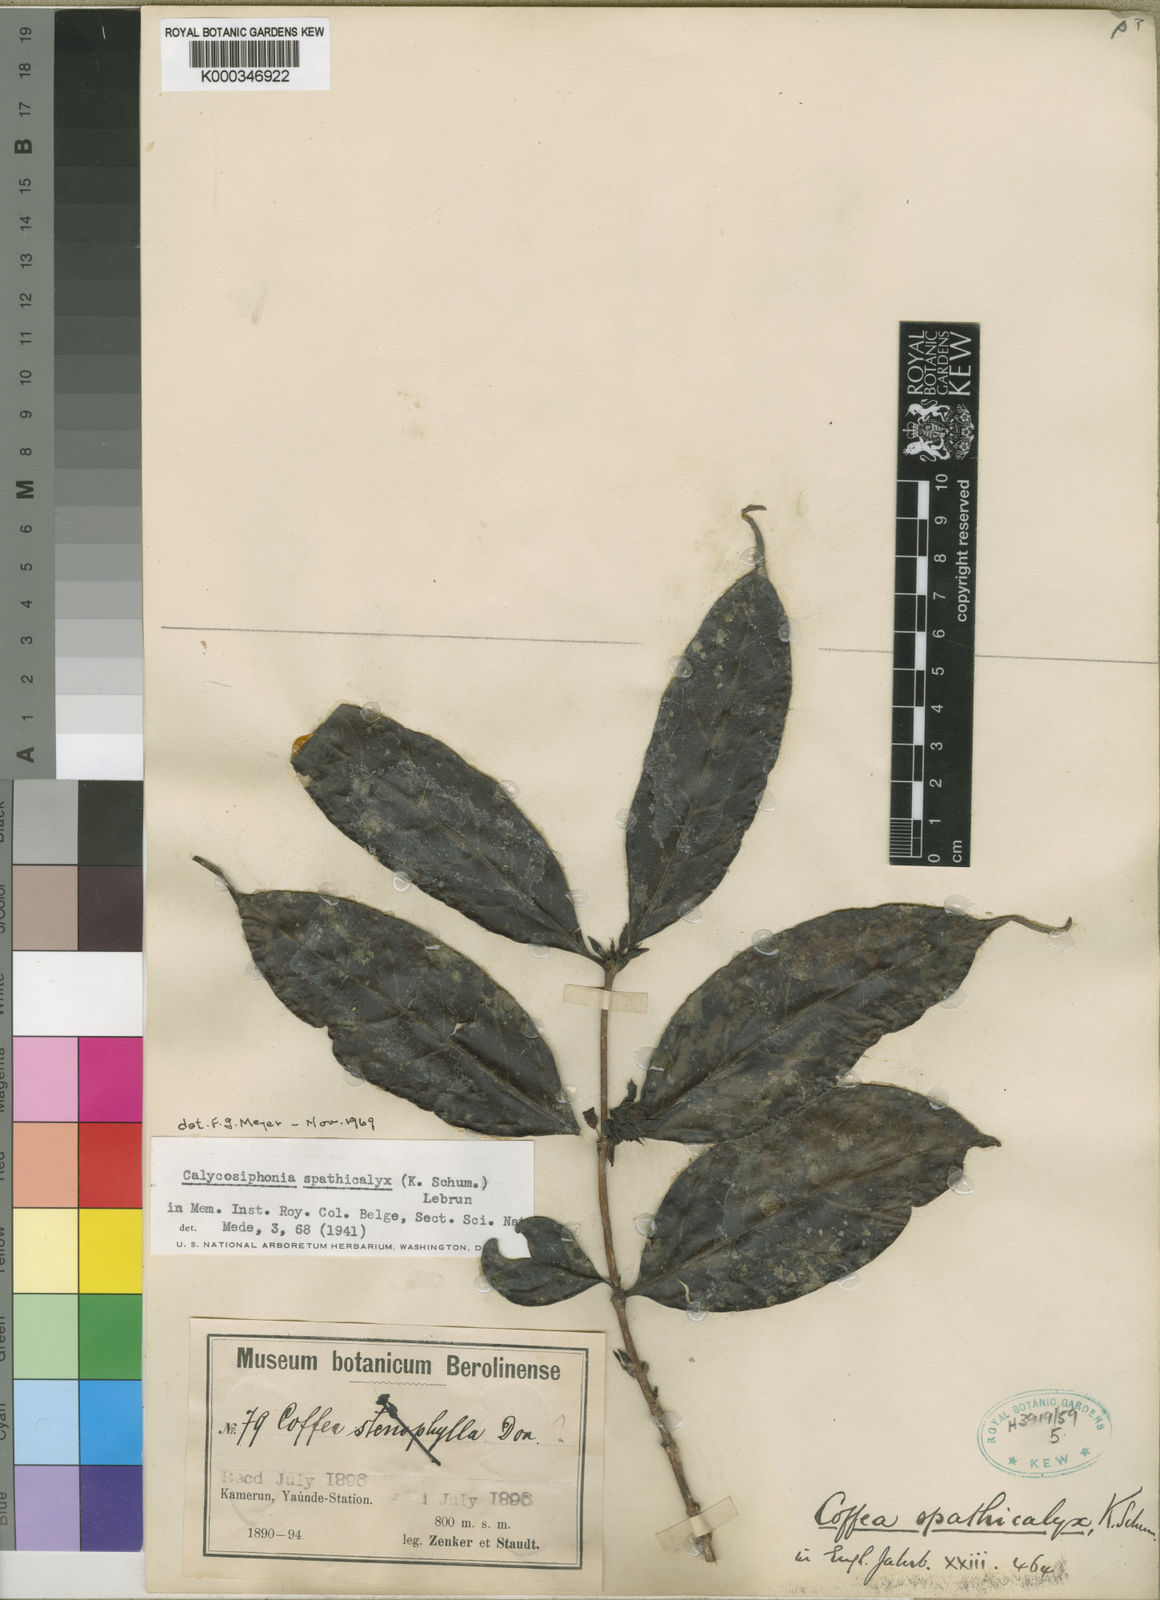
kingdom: Plantae
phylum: Tracheophyta
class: Magnoliopsida
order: Gentianales
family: Rubiaceae
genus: Calycosiphonia
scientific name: Calycosiphonia spathicalyx
